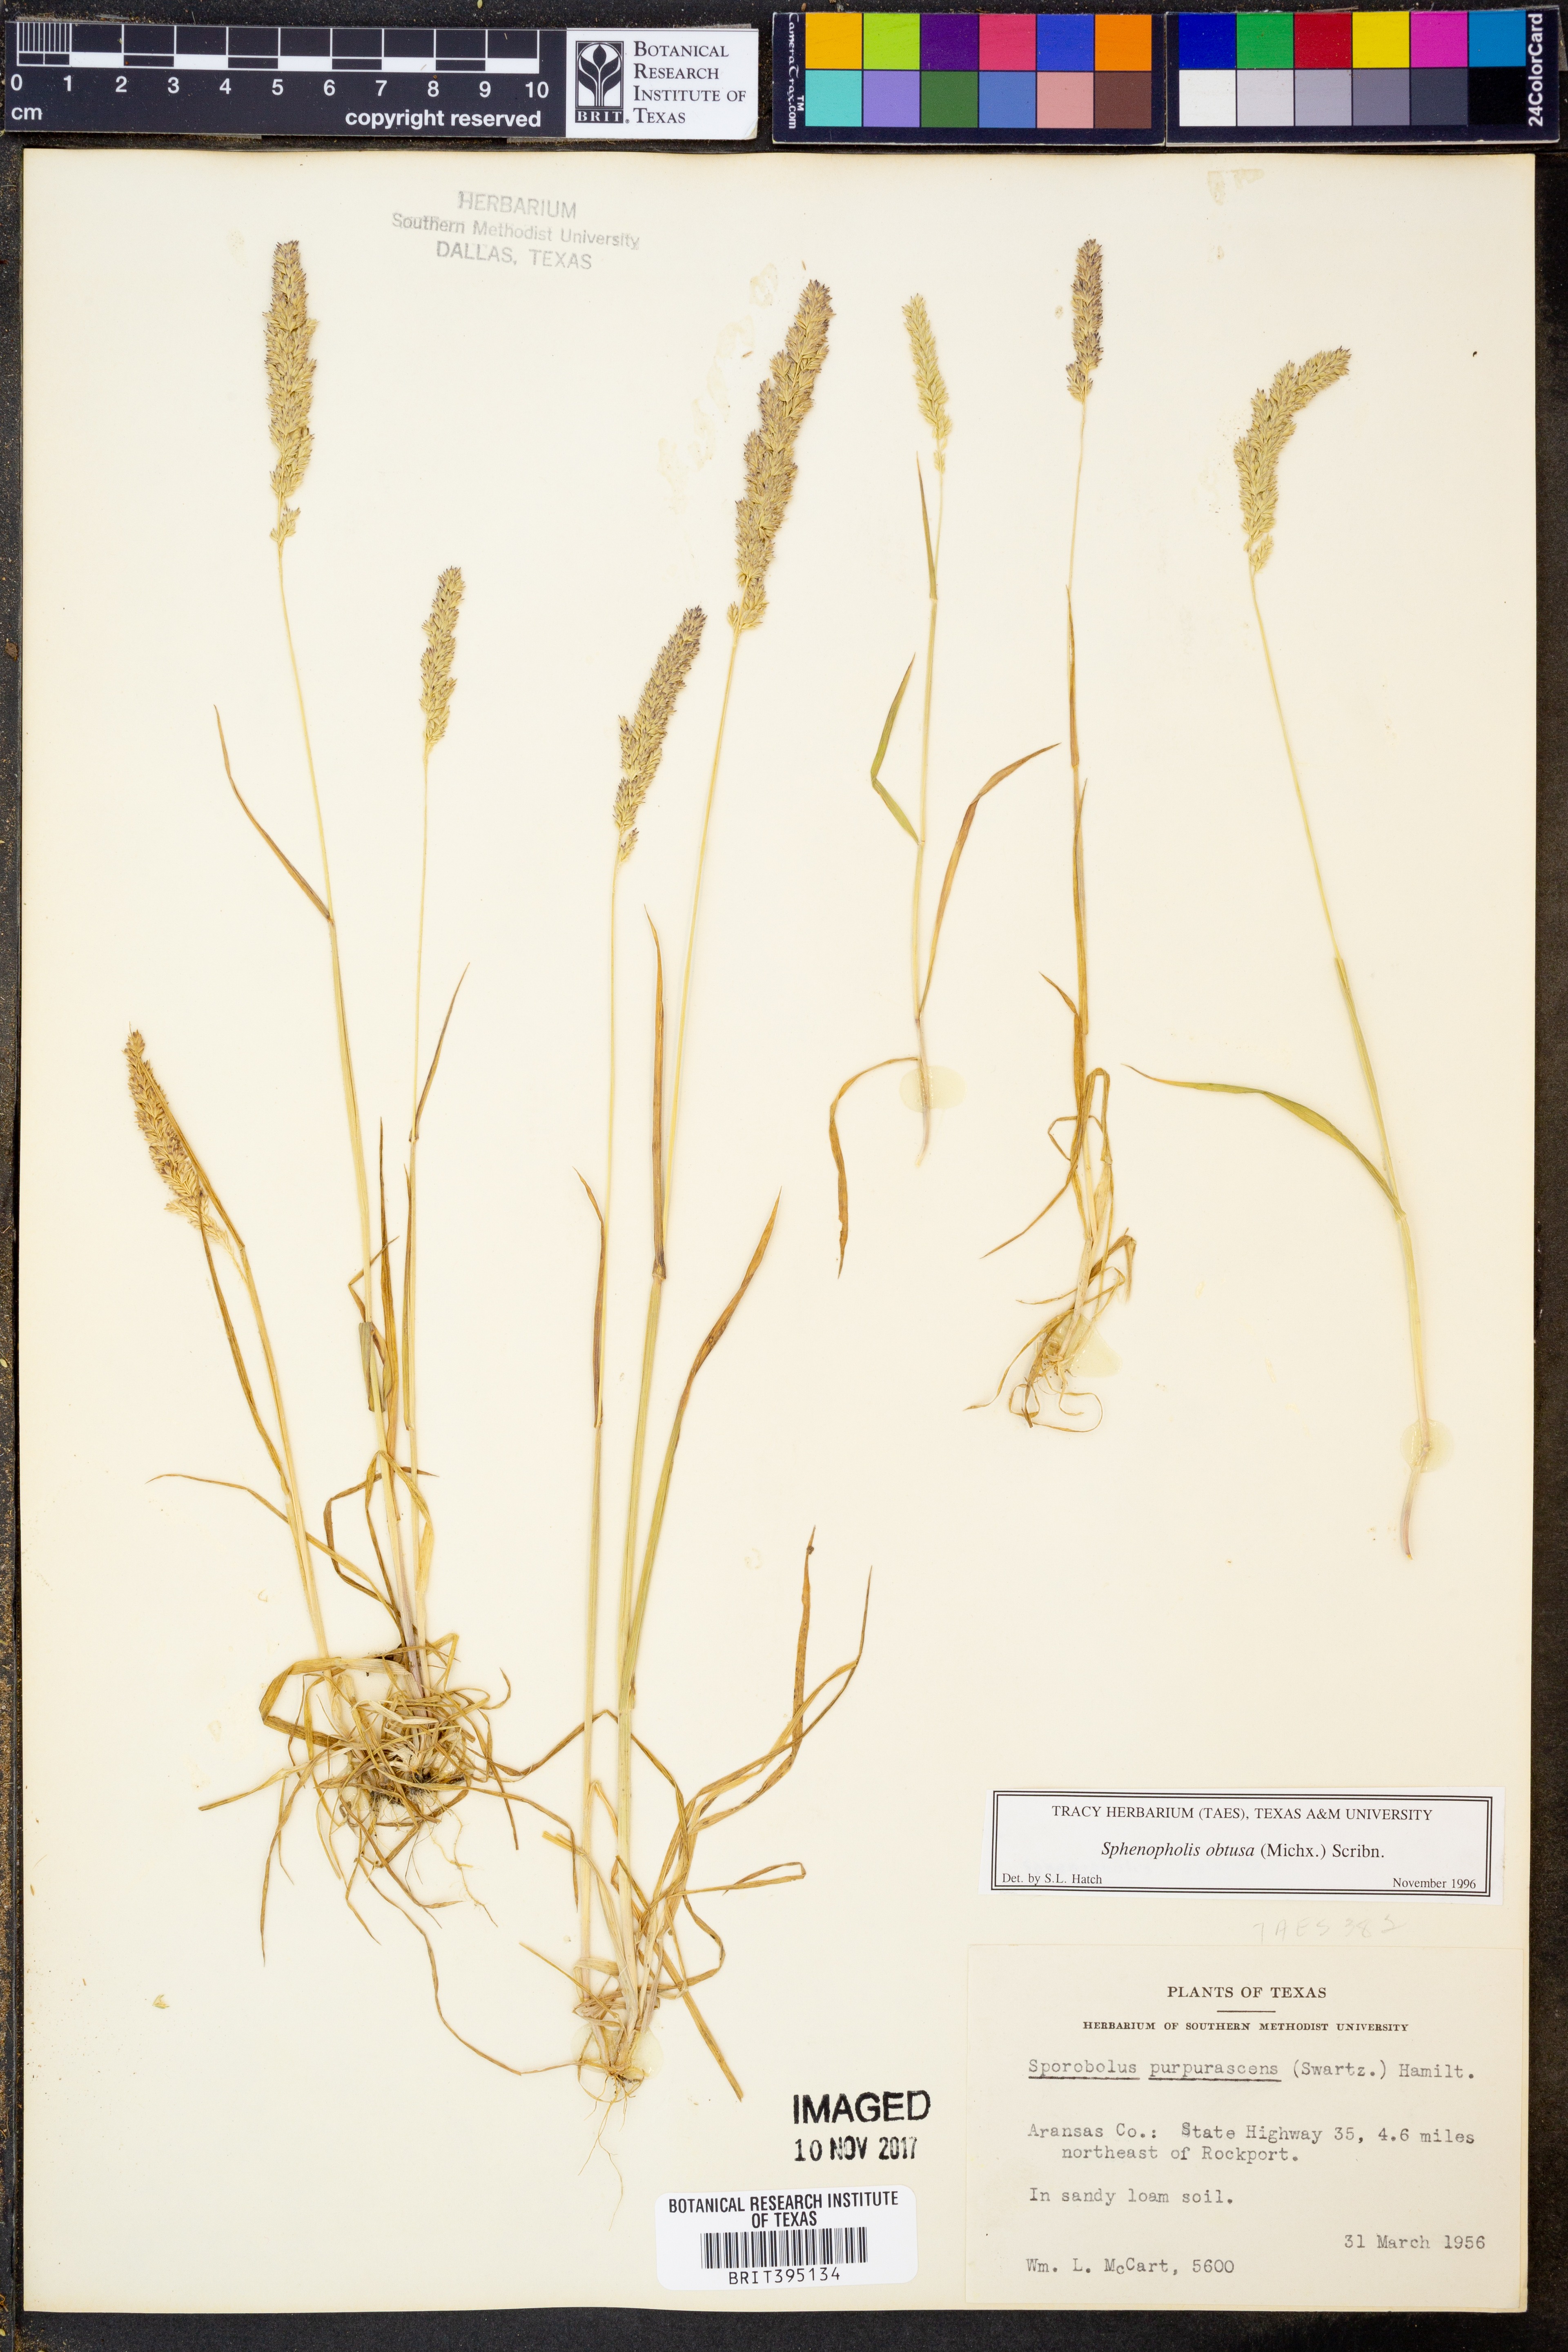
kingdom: Plantae
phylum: Tracheophyta
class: Liliopsida
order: Poales
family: Poaceae
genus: Sphenopholis
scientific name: Sphenopholis obtusata
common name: Prairie grass
